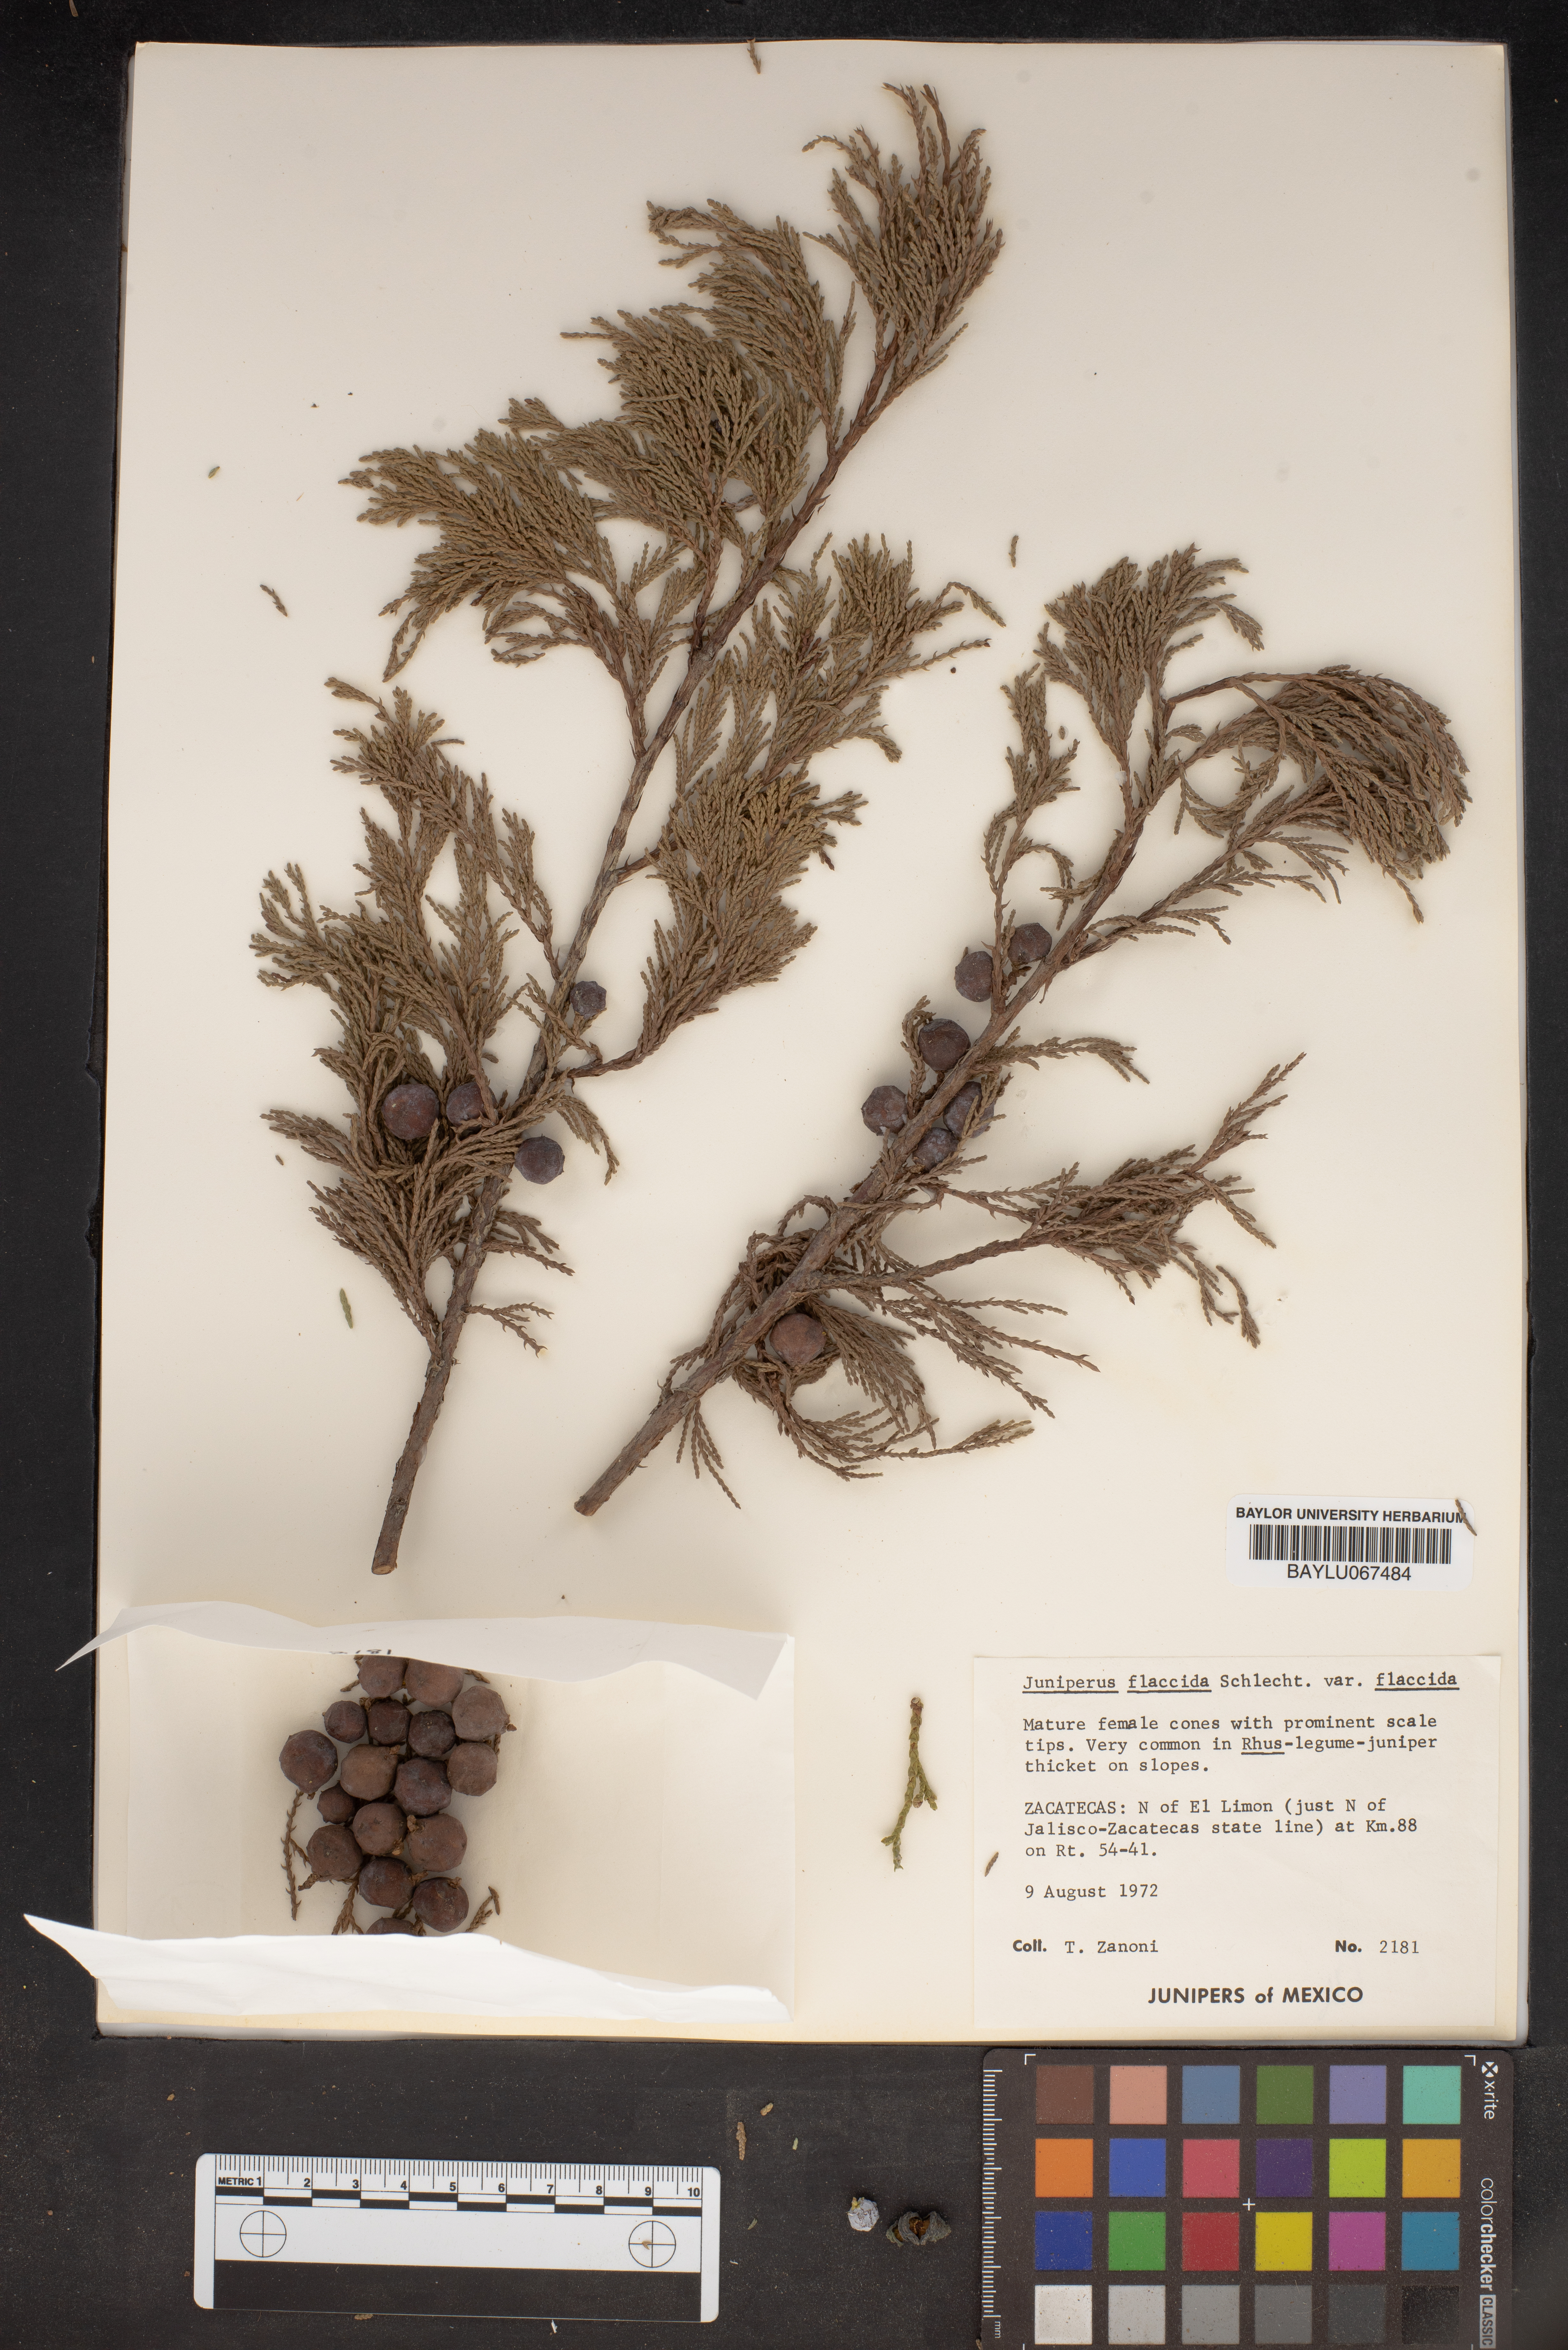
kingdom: Plantae
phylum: Tracheophyta
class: Pinopsida
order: Pinales
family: Cupressaceae
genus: Juniperus
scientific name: Juniperus flaccida
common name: Drooping juniper
